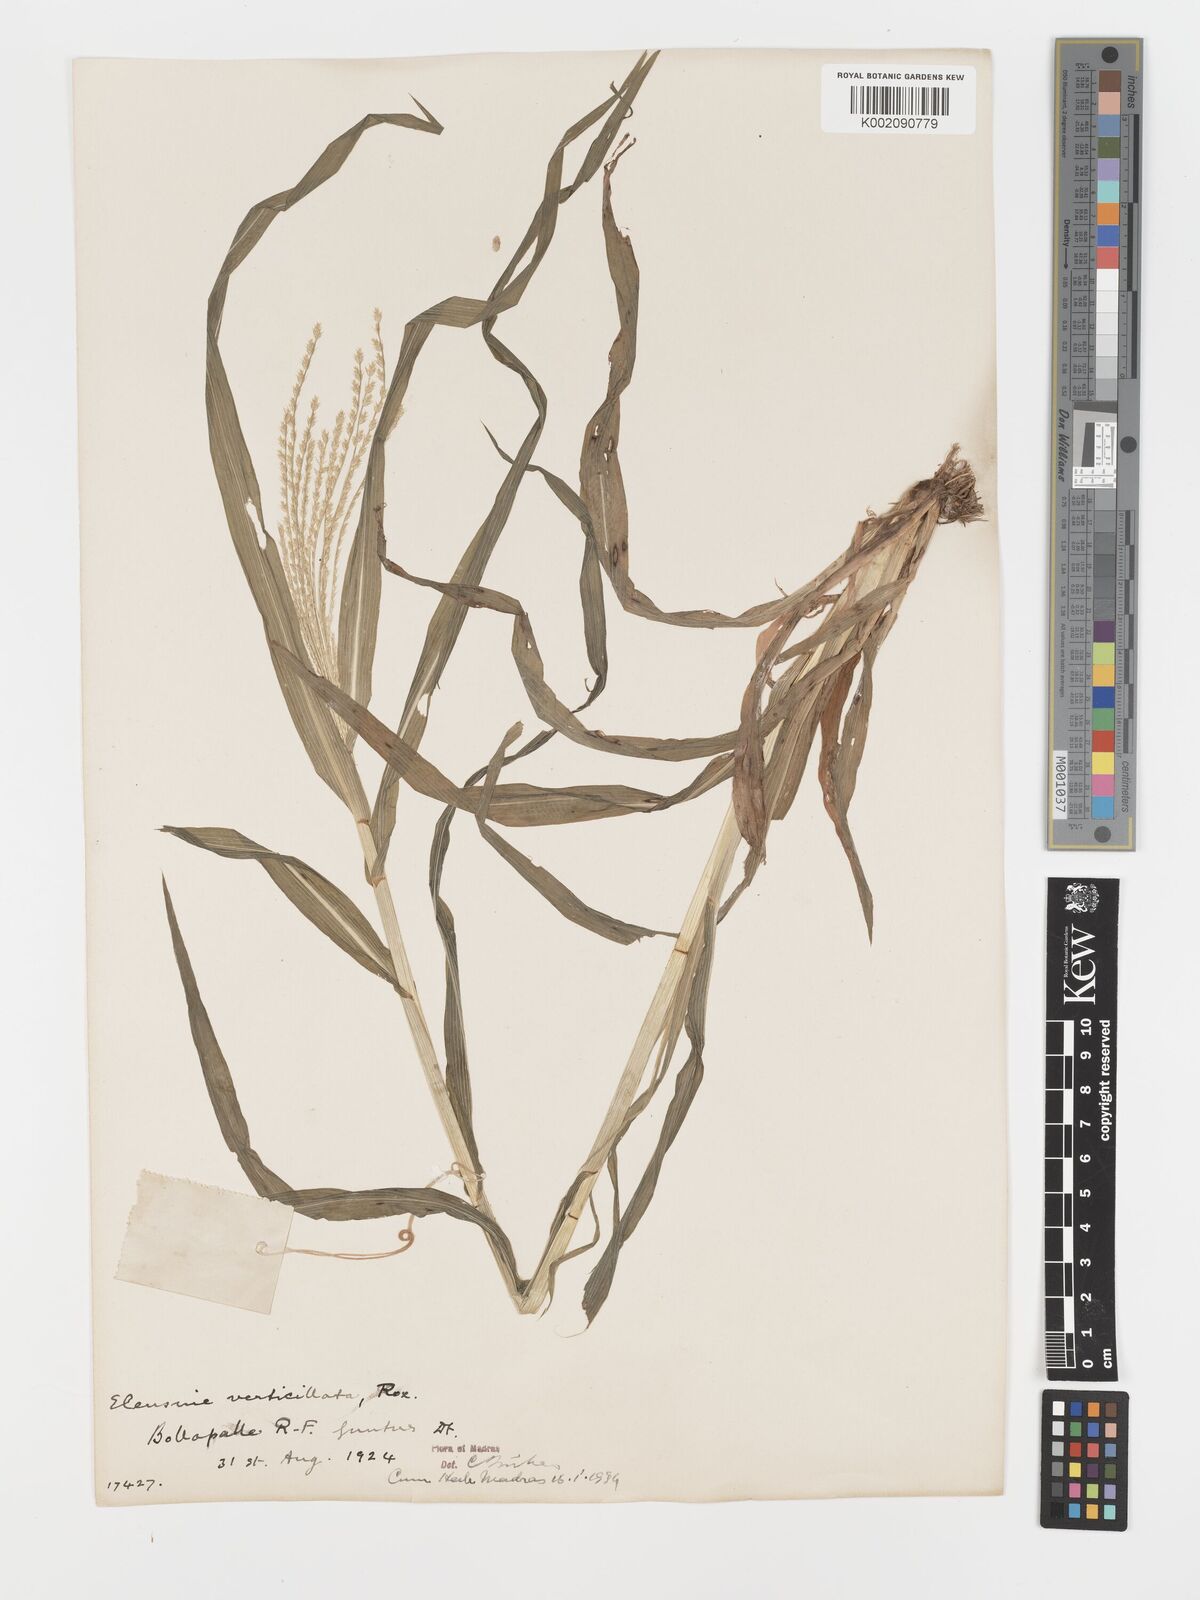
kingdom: Plantae
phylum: Tracheophyta
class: Liliopsida
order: Poales
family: Poaceae
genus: Acrachne
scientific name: Acrachne racemosa
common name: Goosegrass
